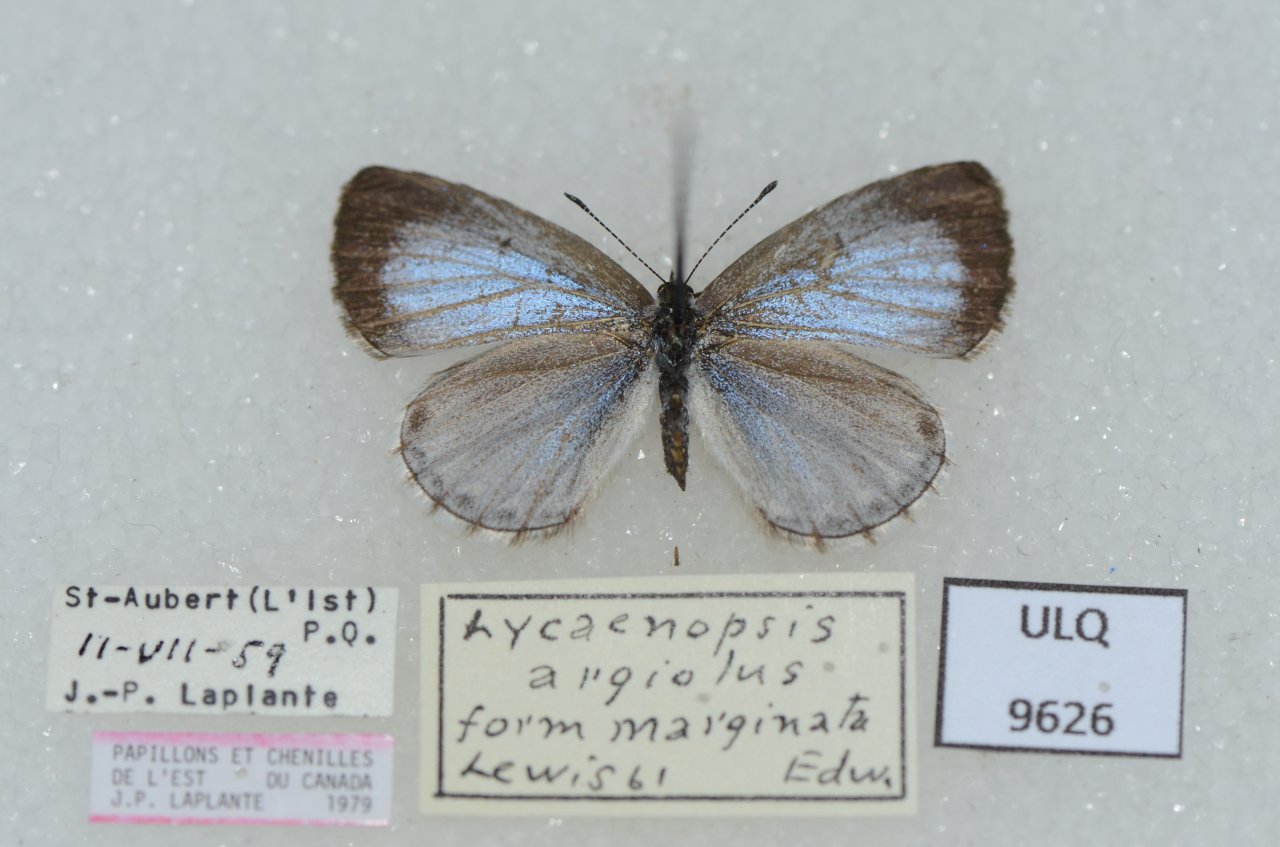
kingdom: Animalia
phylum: Arthropoda
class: Insecta
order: Lepidoptera
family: Lycaenidae
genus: Celastrina
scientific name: Celastrina lucia
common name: Northern Spring Azure
